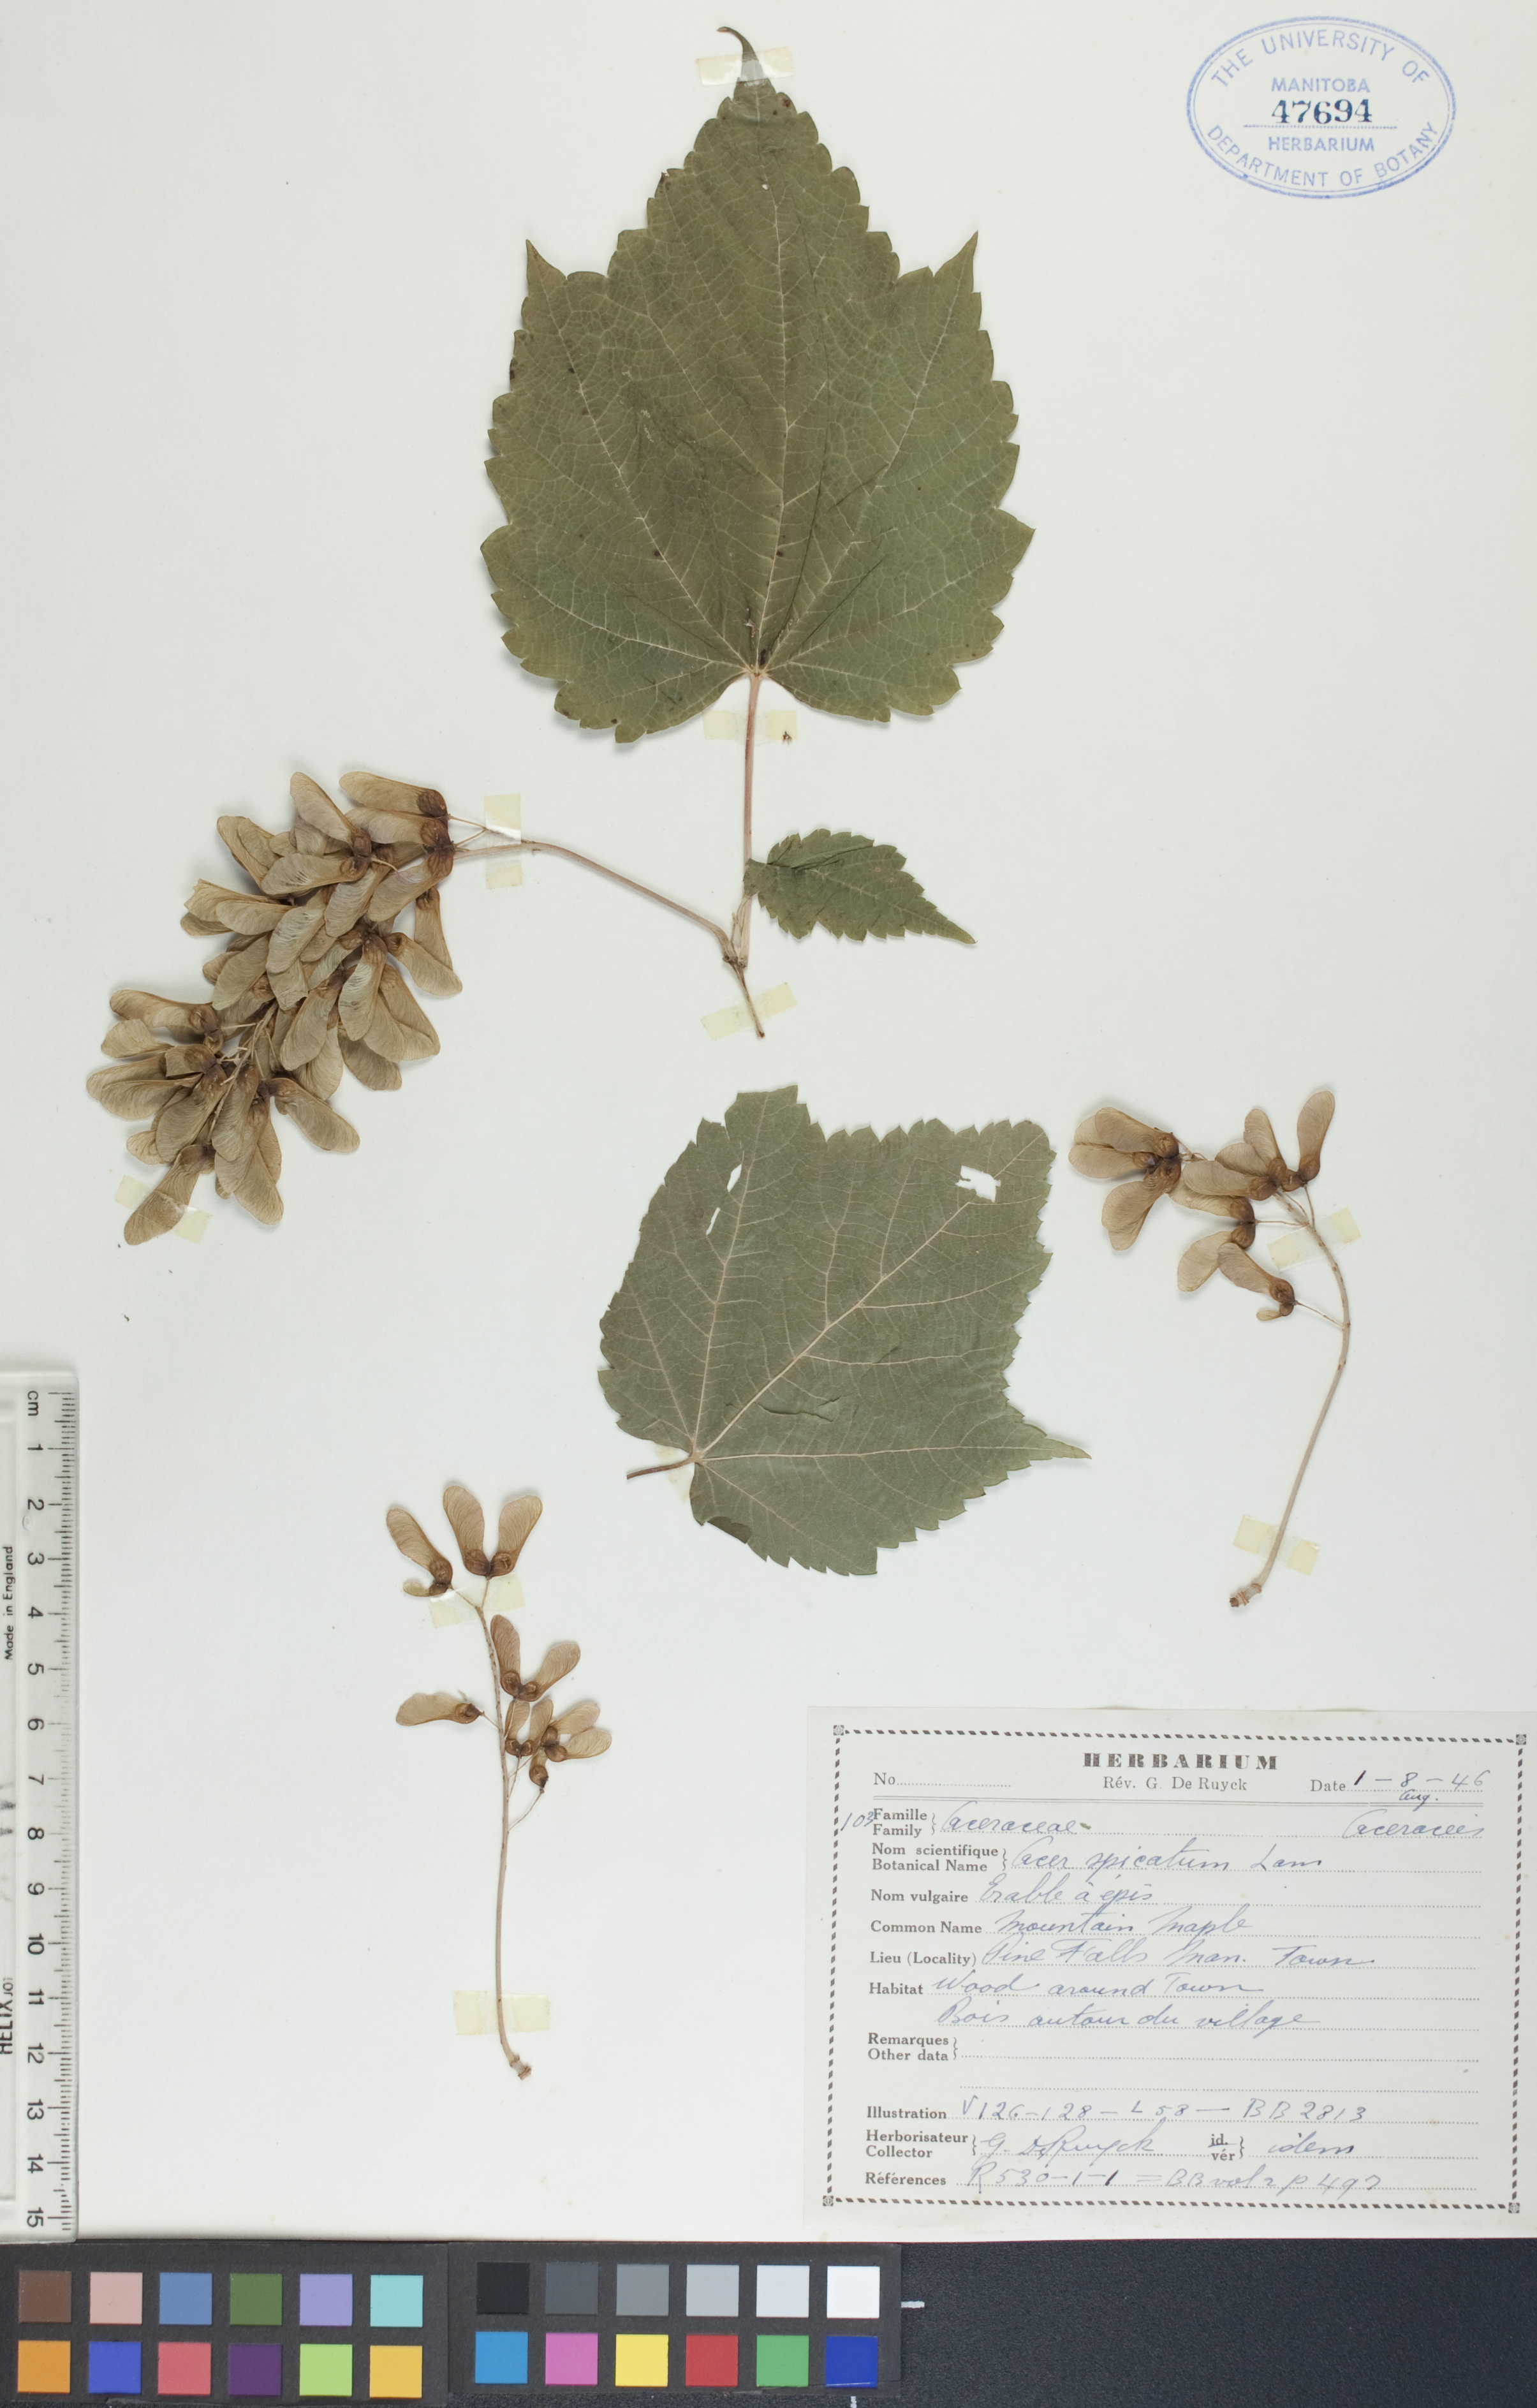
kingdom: Plantae
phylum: Tracheophyta
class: Magnoliopsida
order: Sapindales
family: Sapindaceae
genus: Acer
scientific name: Acer spicatum
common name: Mountain maple
